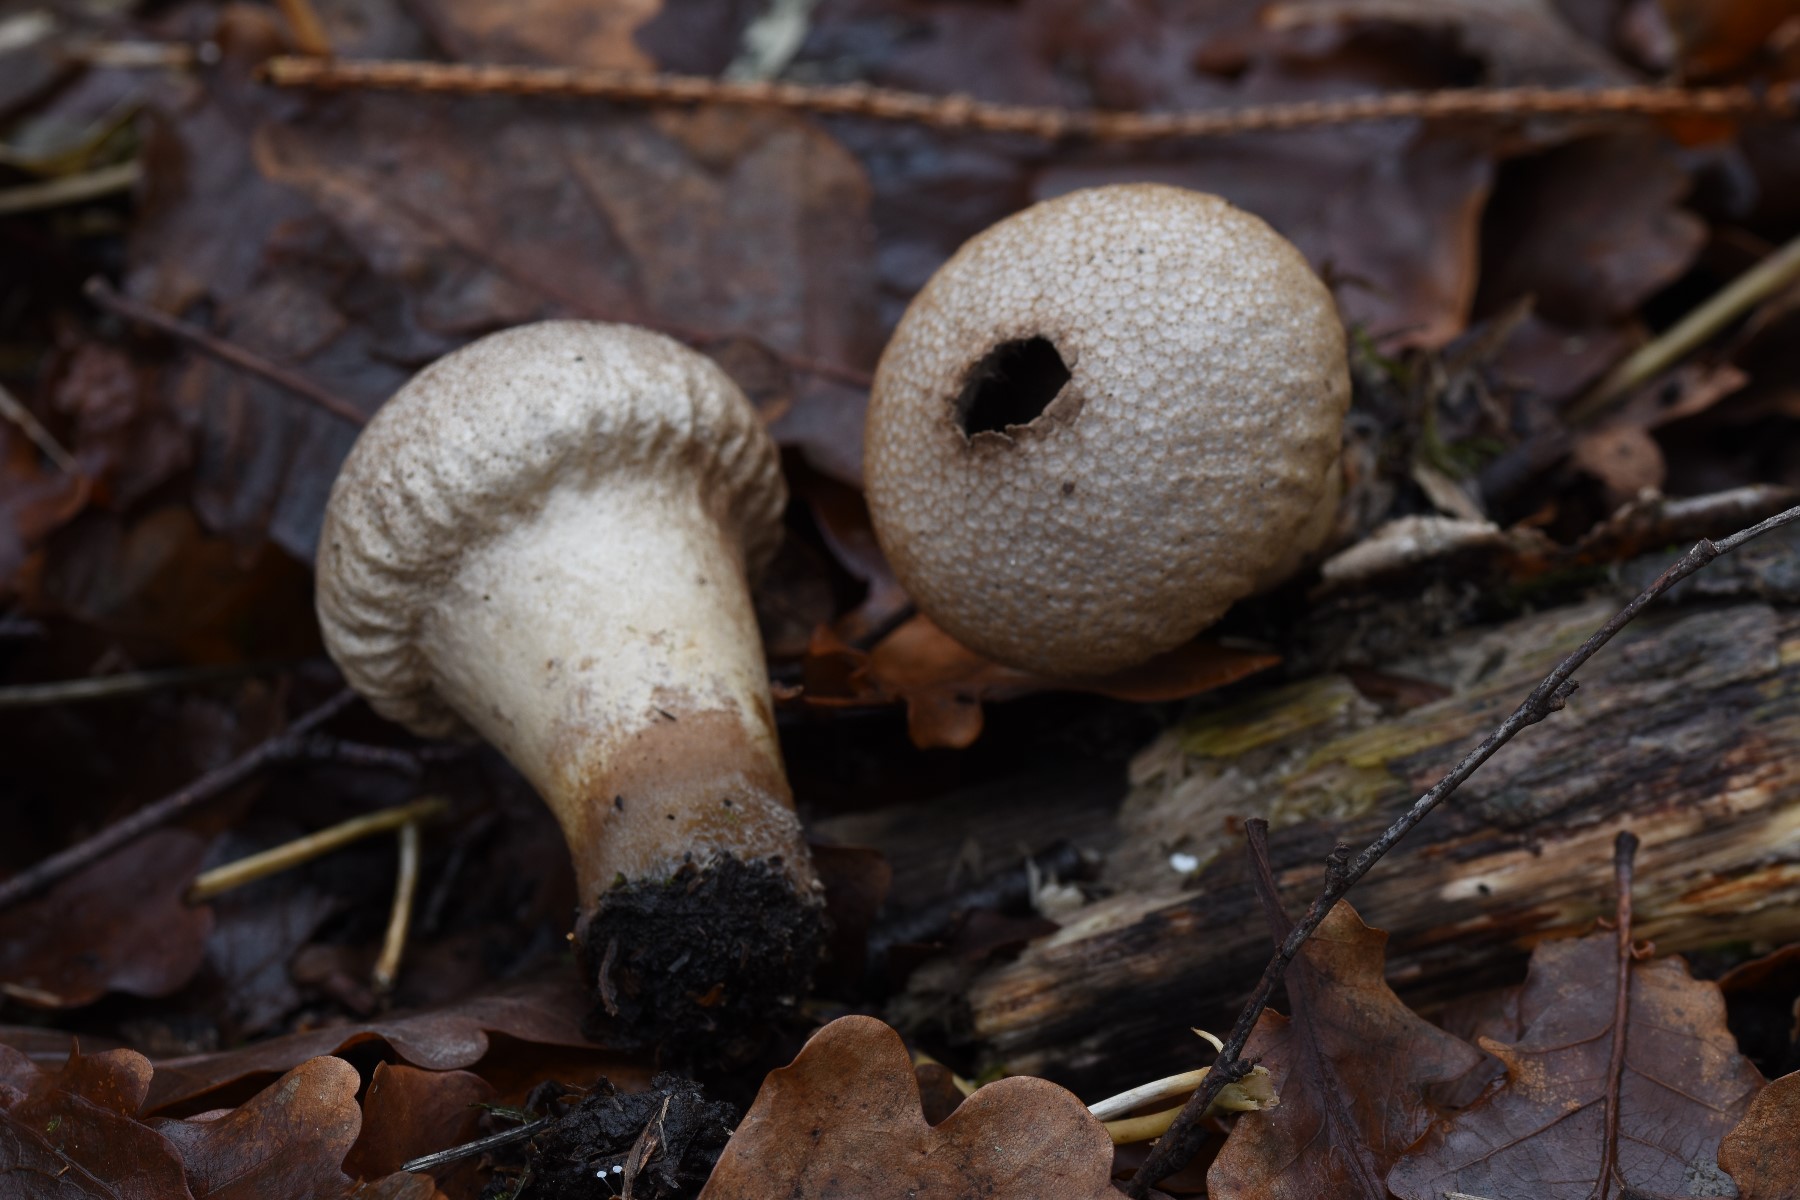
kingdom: Fungi
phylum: Basidiomycota
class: Agaricomycetes
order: Agaricales
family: Lycoperdaceae
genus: Lycoperdon
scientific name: Lycoperdon perlatum
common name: krystal-støvbold
